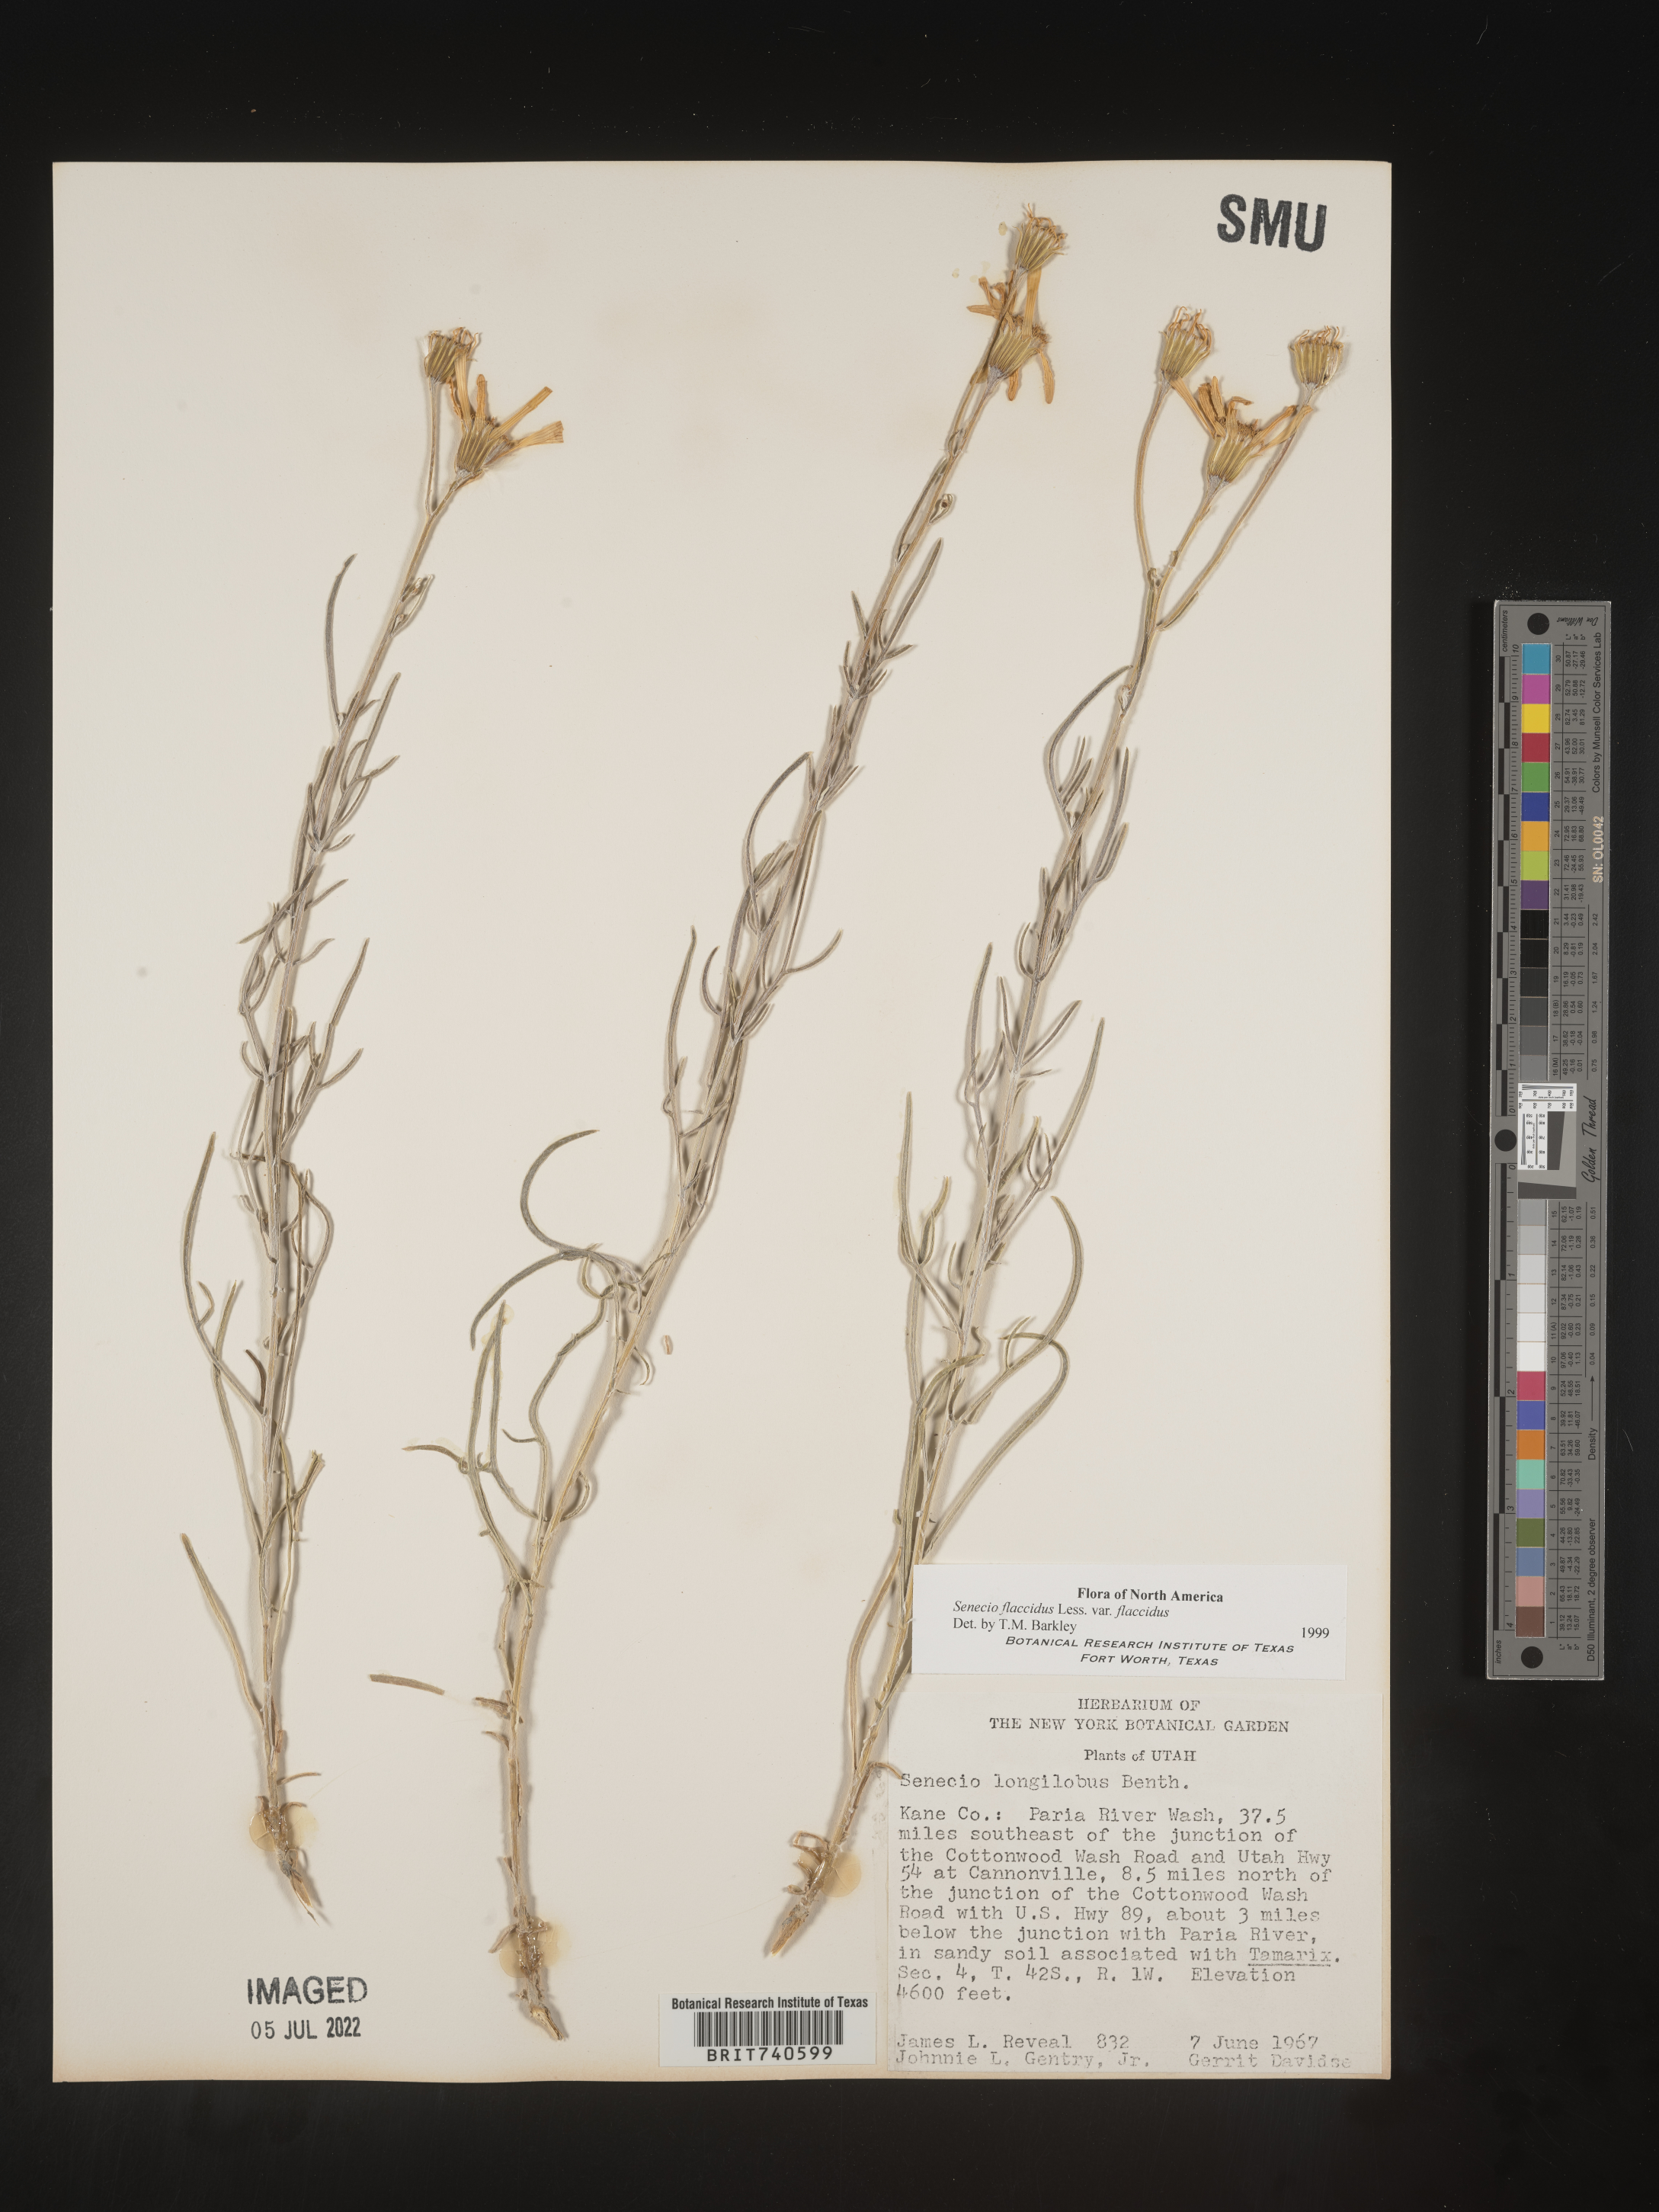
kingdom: Plantae
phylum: Tracheophyta
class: Magnoliopsida
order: Asterales
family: Asteraceae
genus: Senecio
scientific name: Senecio flaccidus
